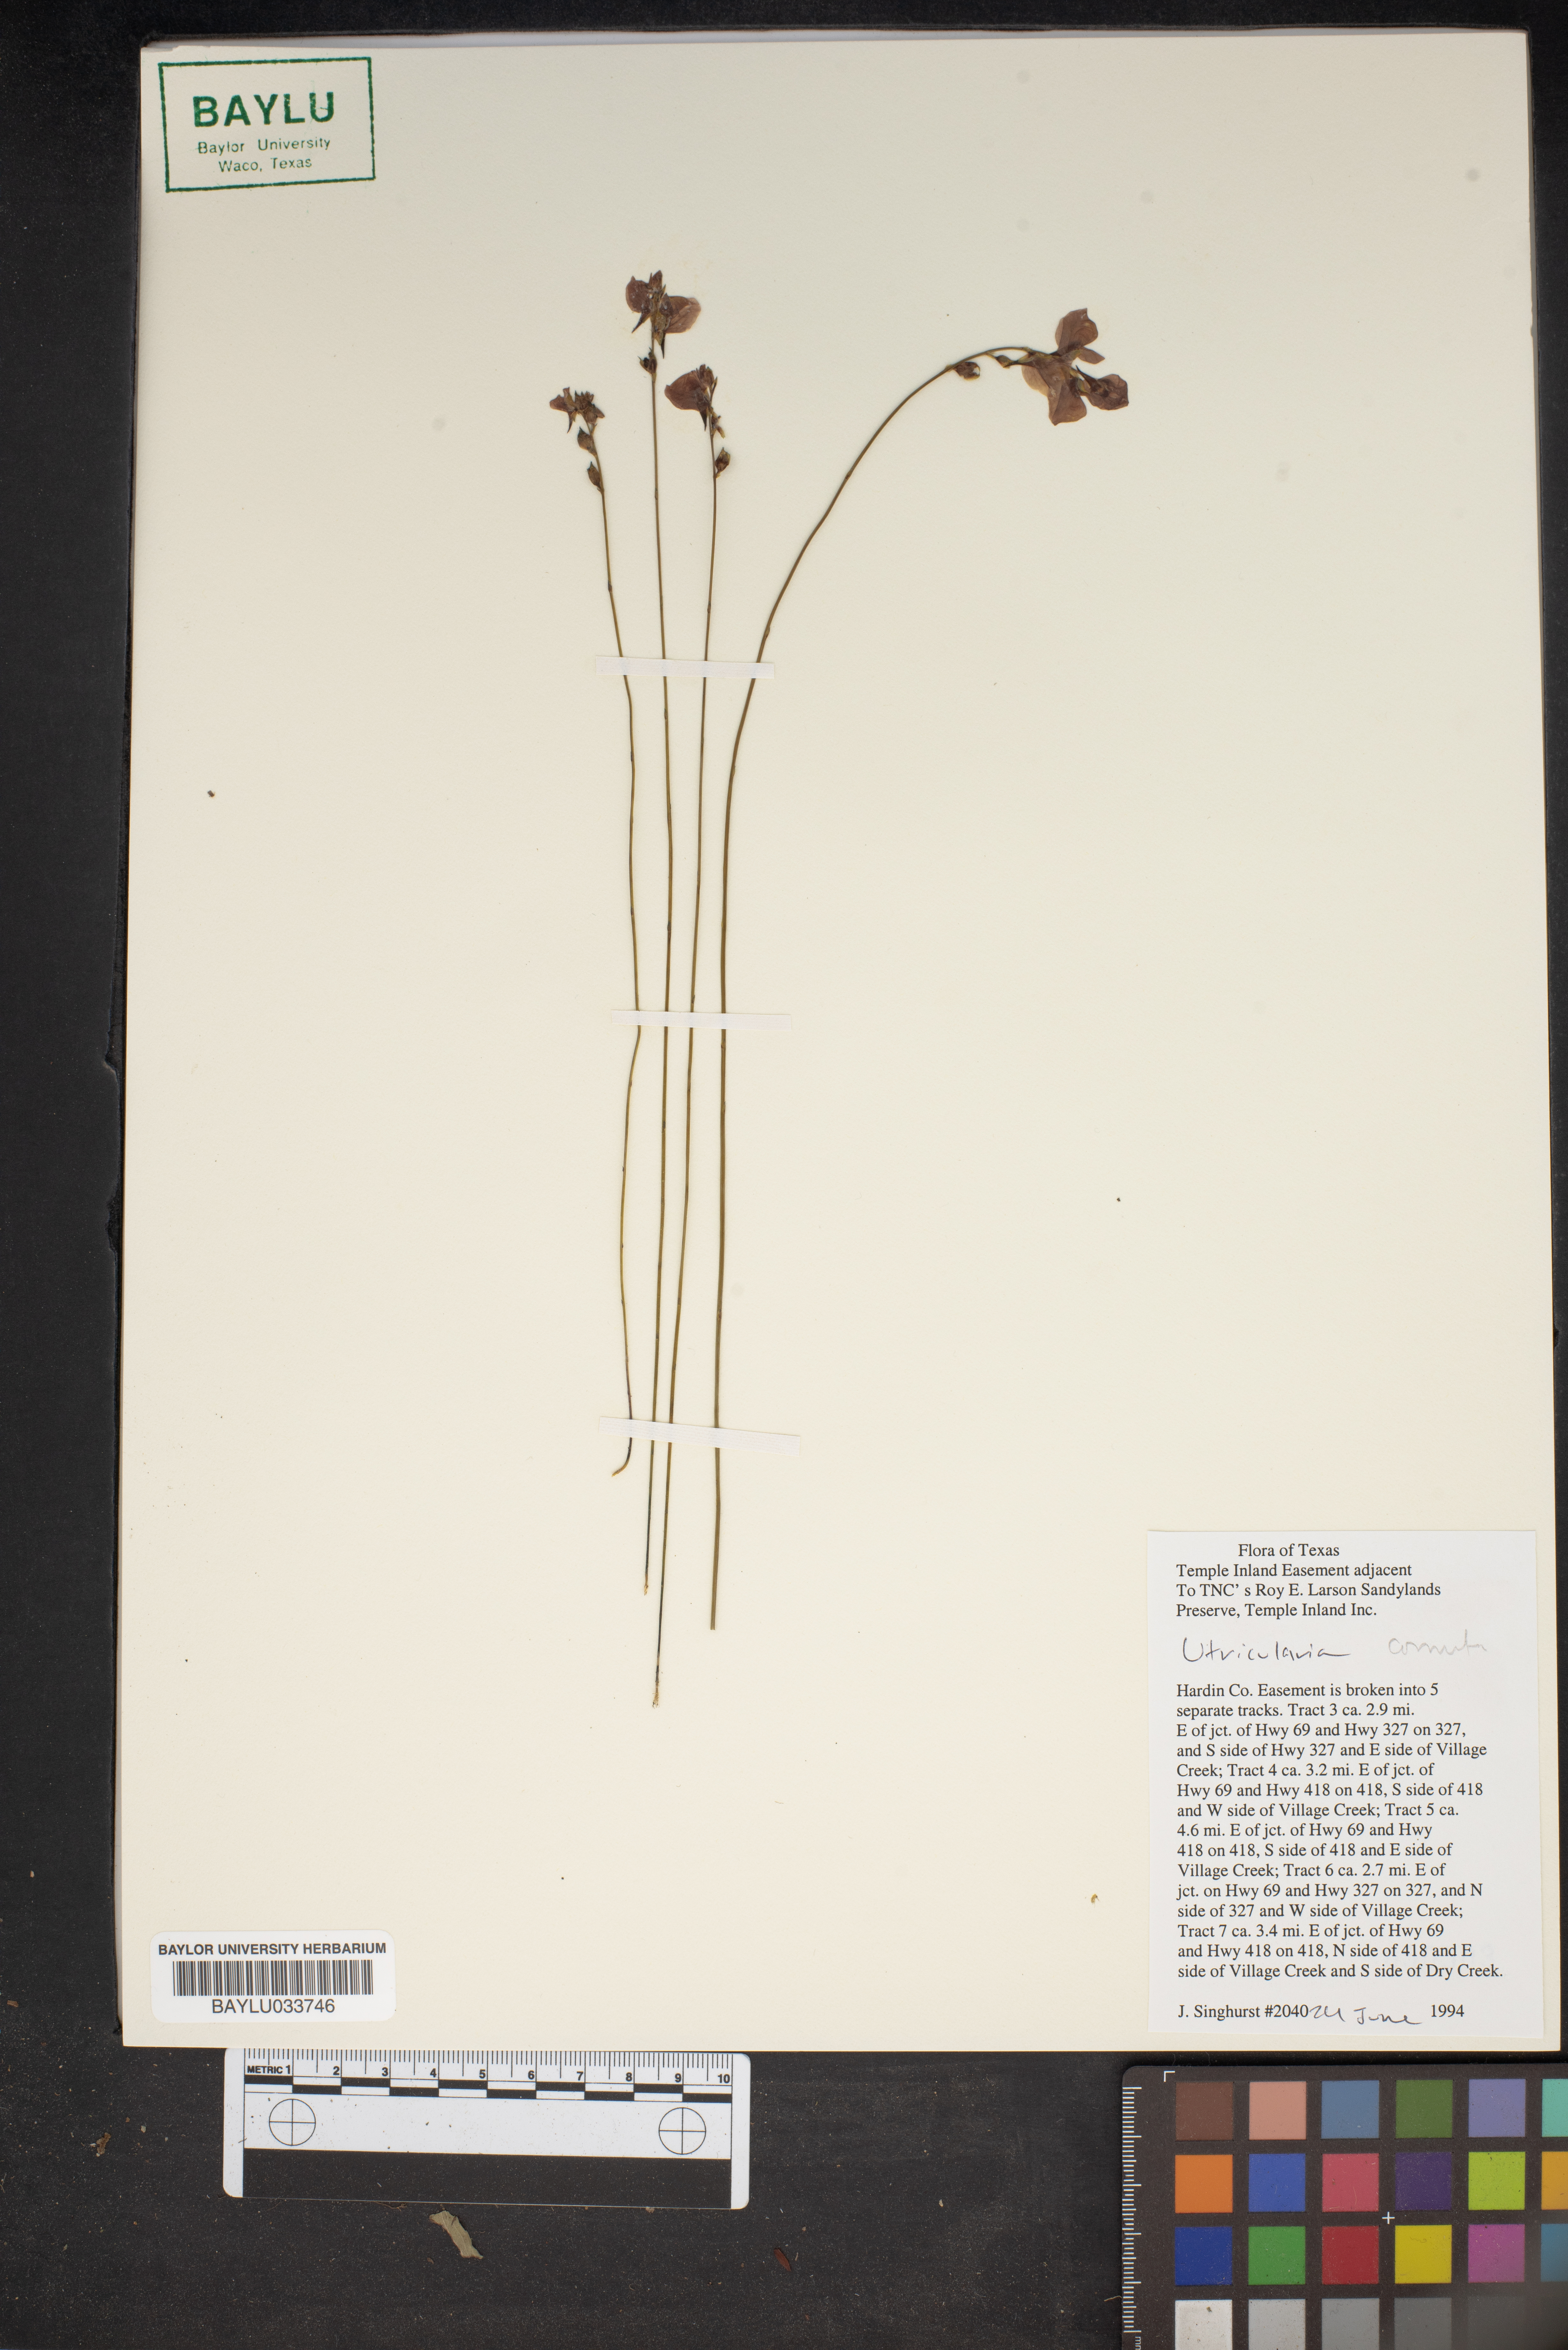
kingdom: Plantae
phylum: Tracheophyta
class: Magnoliopsida
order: Lamiales
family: Lentibulariaceae
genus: Utricularia
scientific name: Utricularia cornuta
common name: Horned bladderwort
